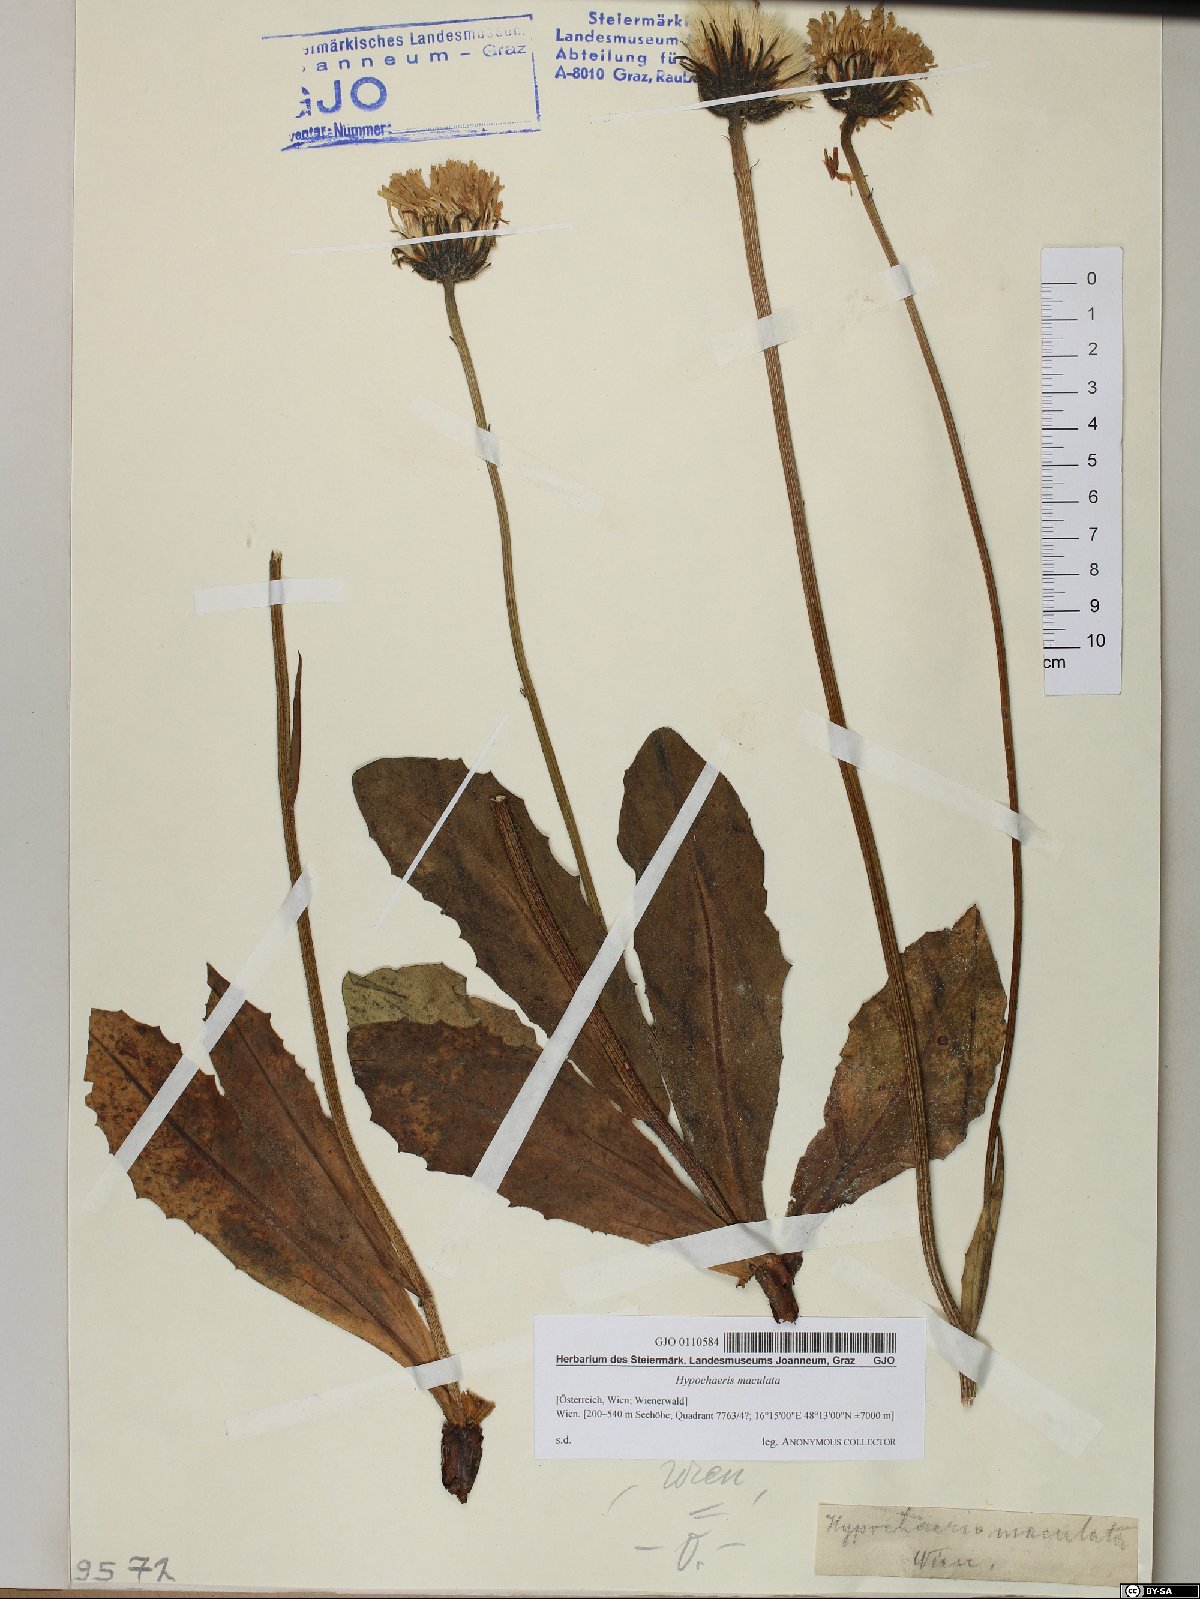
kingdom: Plantae
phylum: Tracheophyta
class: Magnoliopsida
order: Asterales
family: Asteraceae
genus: Trommsdorffia
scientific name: Trommsdorffia maculata
